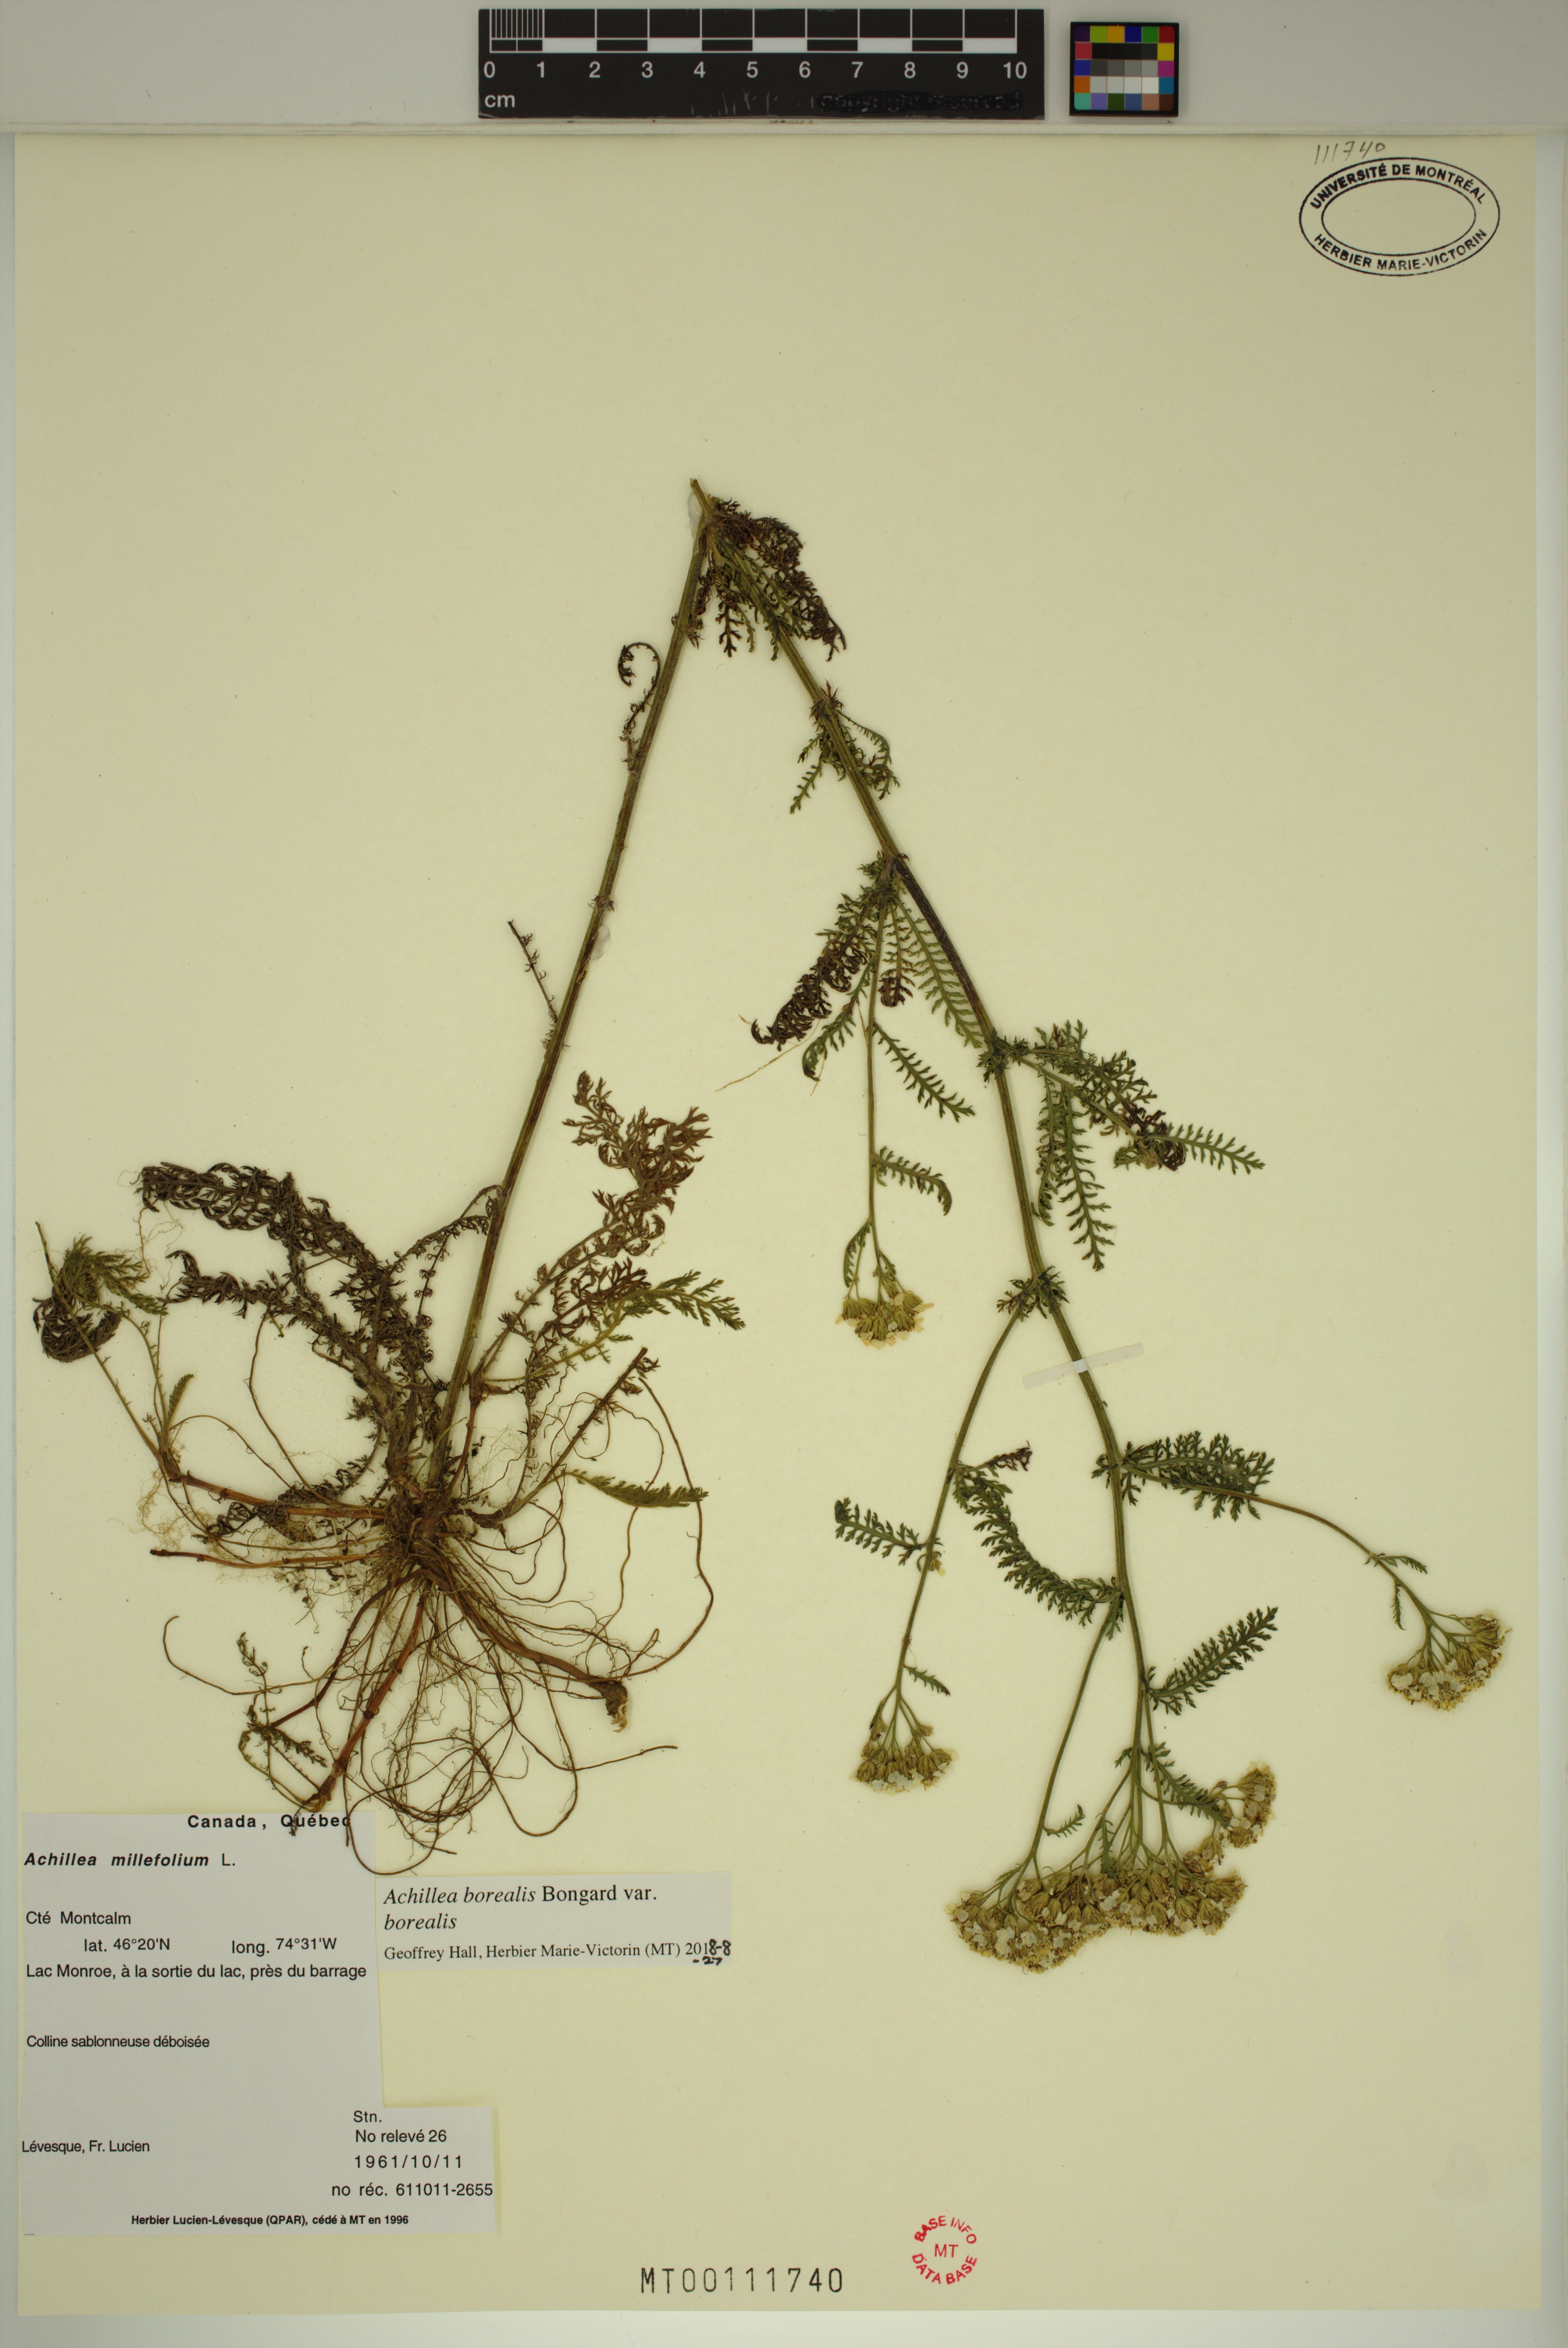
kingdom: Plantae
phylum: Tracheophyta
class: Magnoliopsida
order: Asterales
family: Asteraceae
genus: Achillea
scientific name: Achillea millefolium
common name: Yarrow
